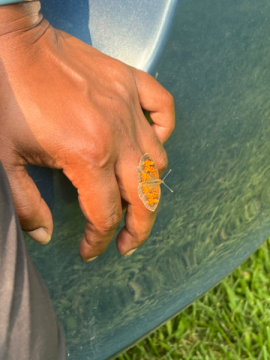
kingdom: Animalia
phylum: Arthropoda
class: Insecta
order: Lepidoptera
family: Nymphalidae
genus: Phyciodes
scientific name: Phyciodes tharos
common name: Northern Crescent
